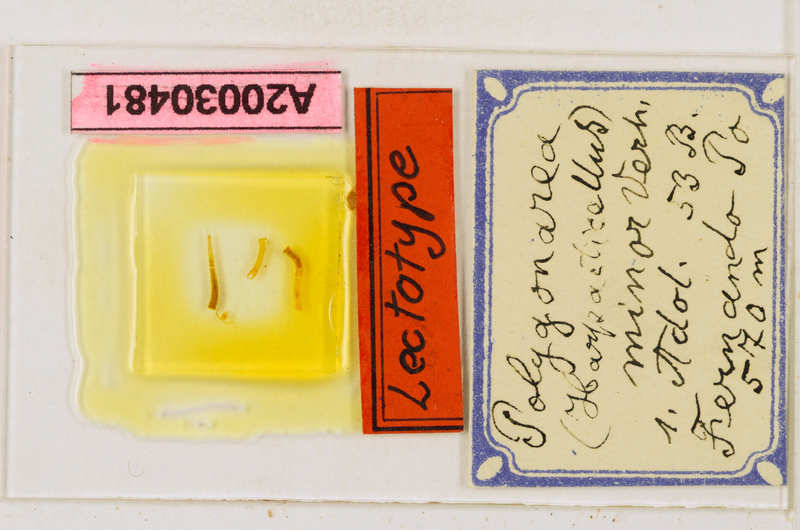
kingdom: Animalia
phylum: Arthropoda
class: Chilopoda
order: Geophilomorpha
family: Geophilidae
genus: Polygonarea
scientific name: Polygonarea
